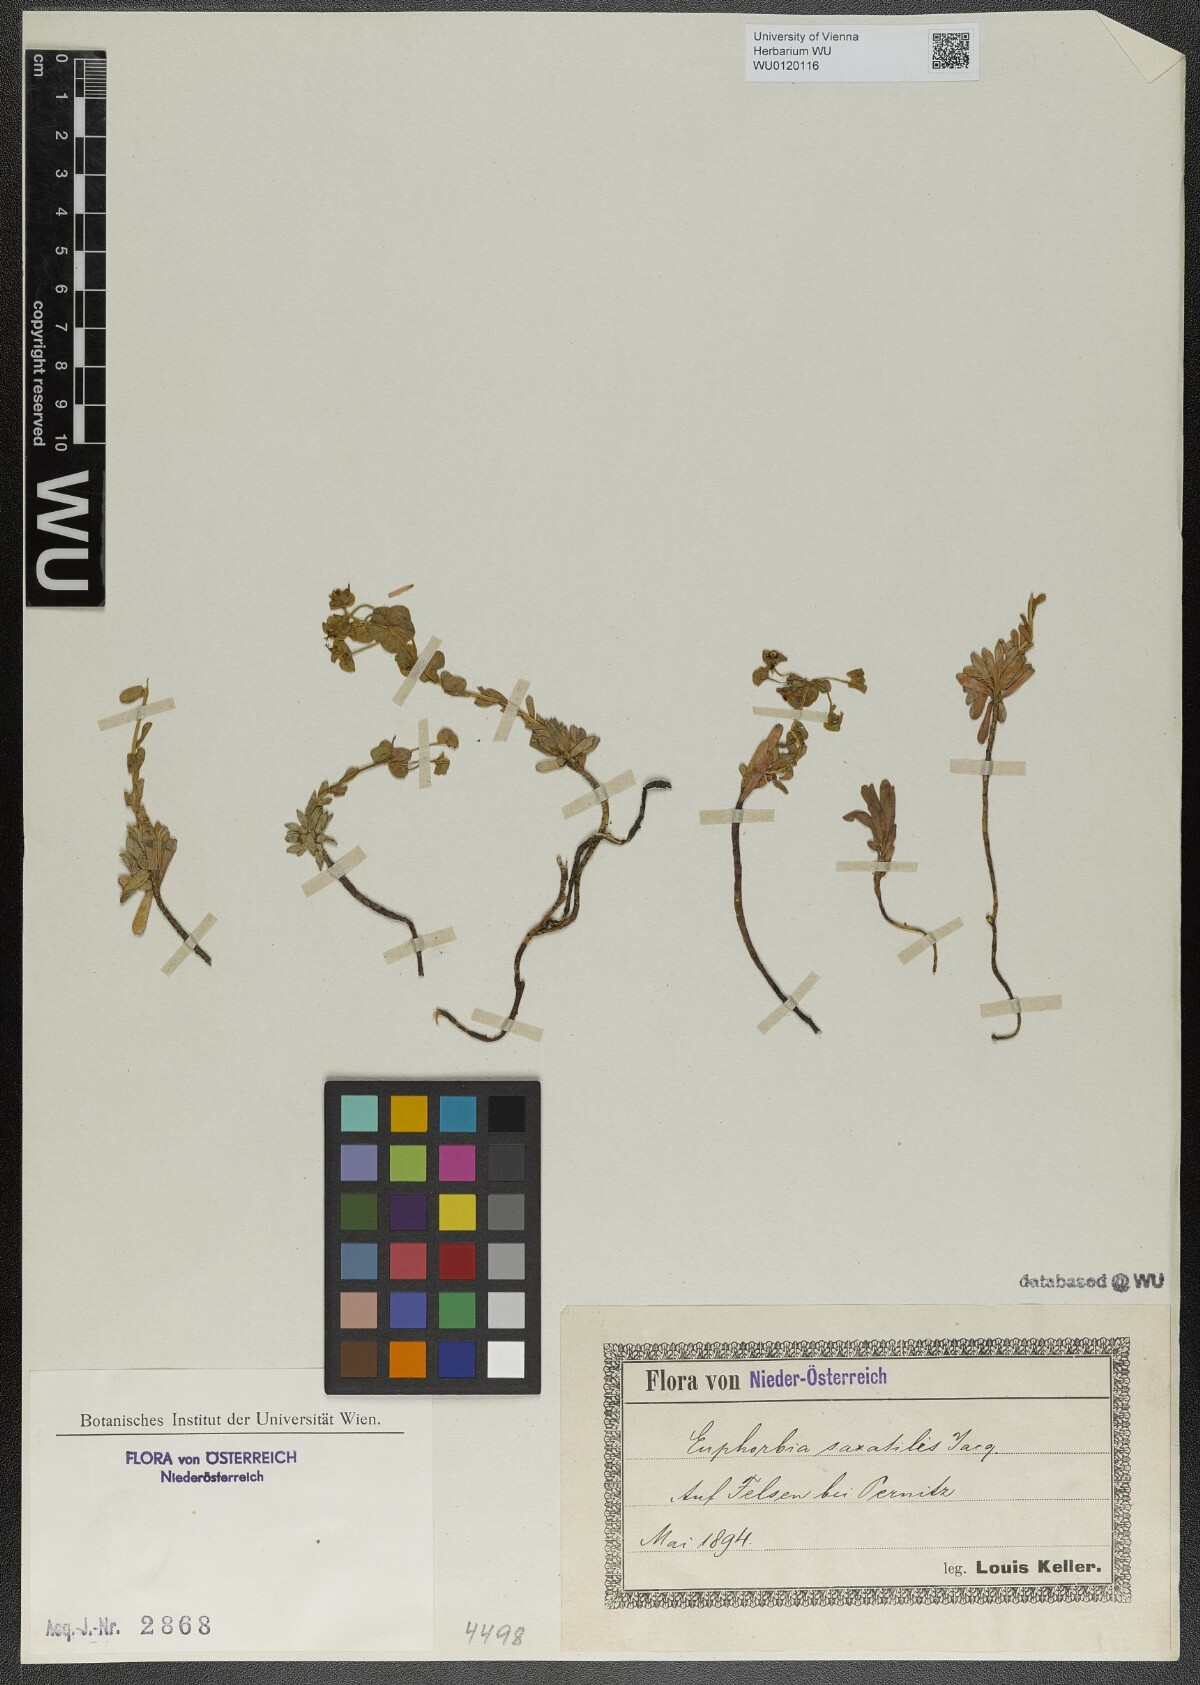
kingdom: Plantae
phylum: Tracheophyta
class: Magnoliopsida
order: Malpighiales
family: Euphorbiaceae
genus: Euphorbia
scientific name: Euphorbia saxatilis
